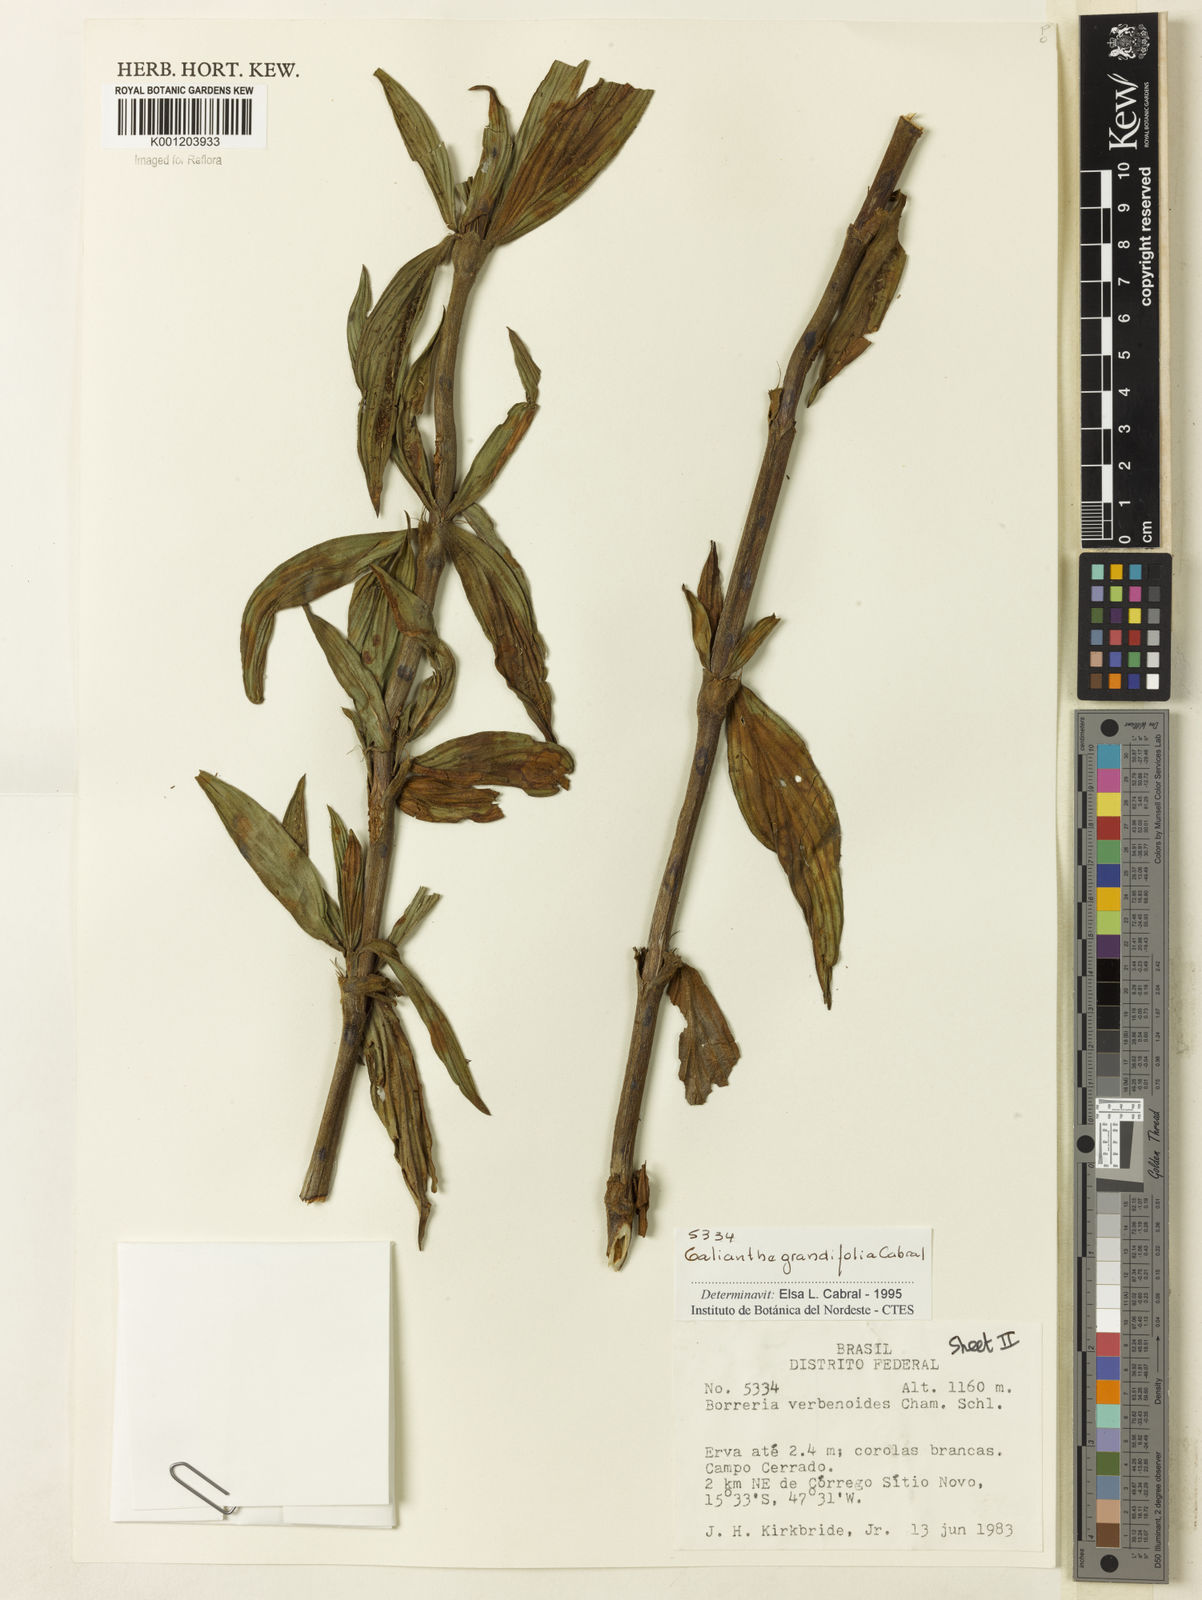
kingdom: Plantae
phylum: Tracheophyta
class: Magnoliopsida
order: Gentianales
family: Rubiaceae
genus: Galianthe
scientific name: Galianthe grandifolia
